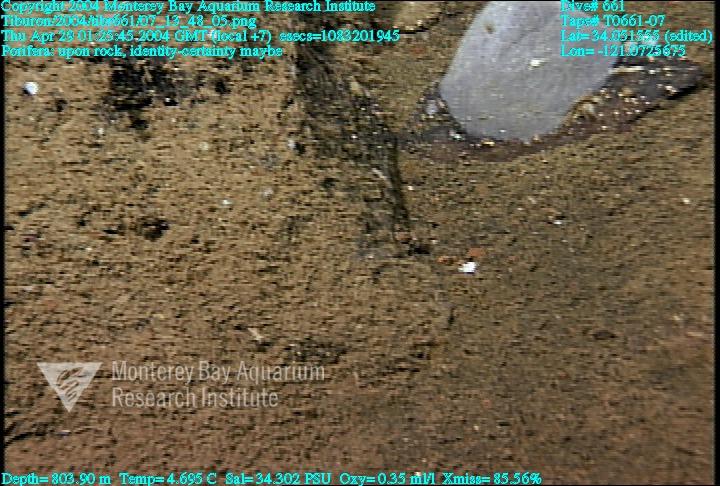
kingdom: Animalia
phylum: Porifera
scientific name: Porifera
